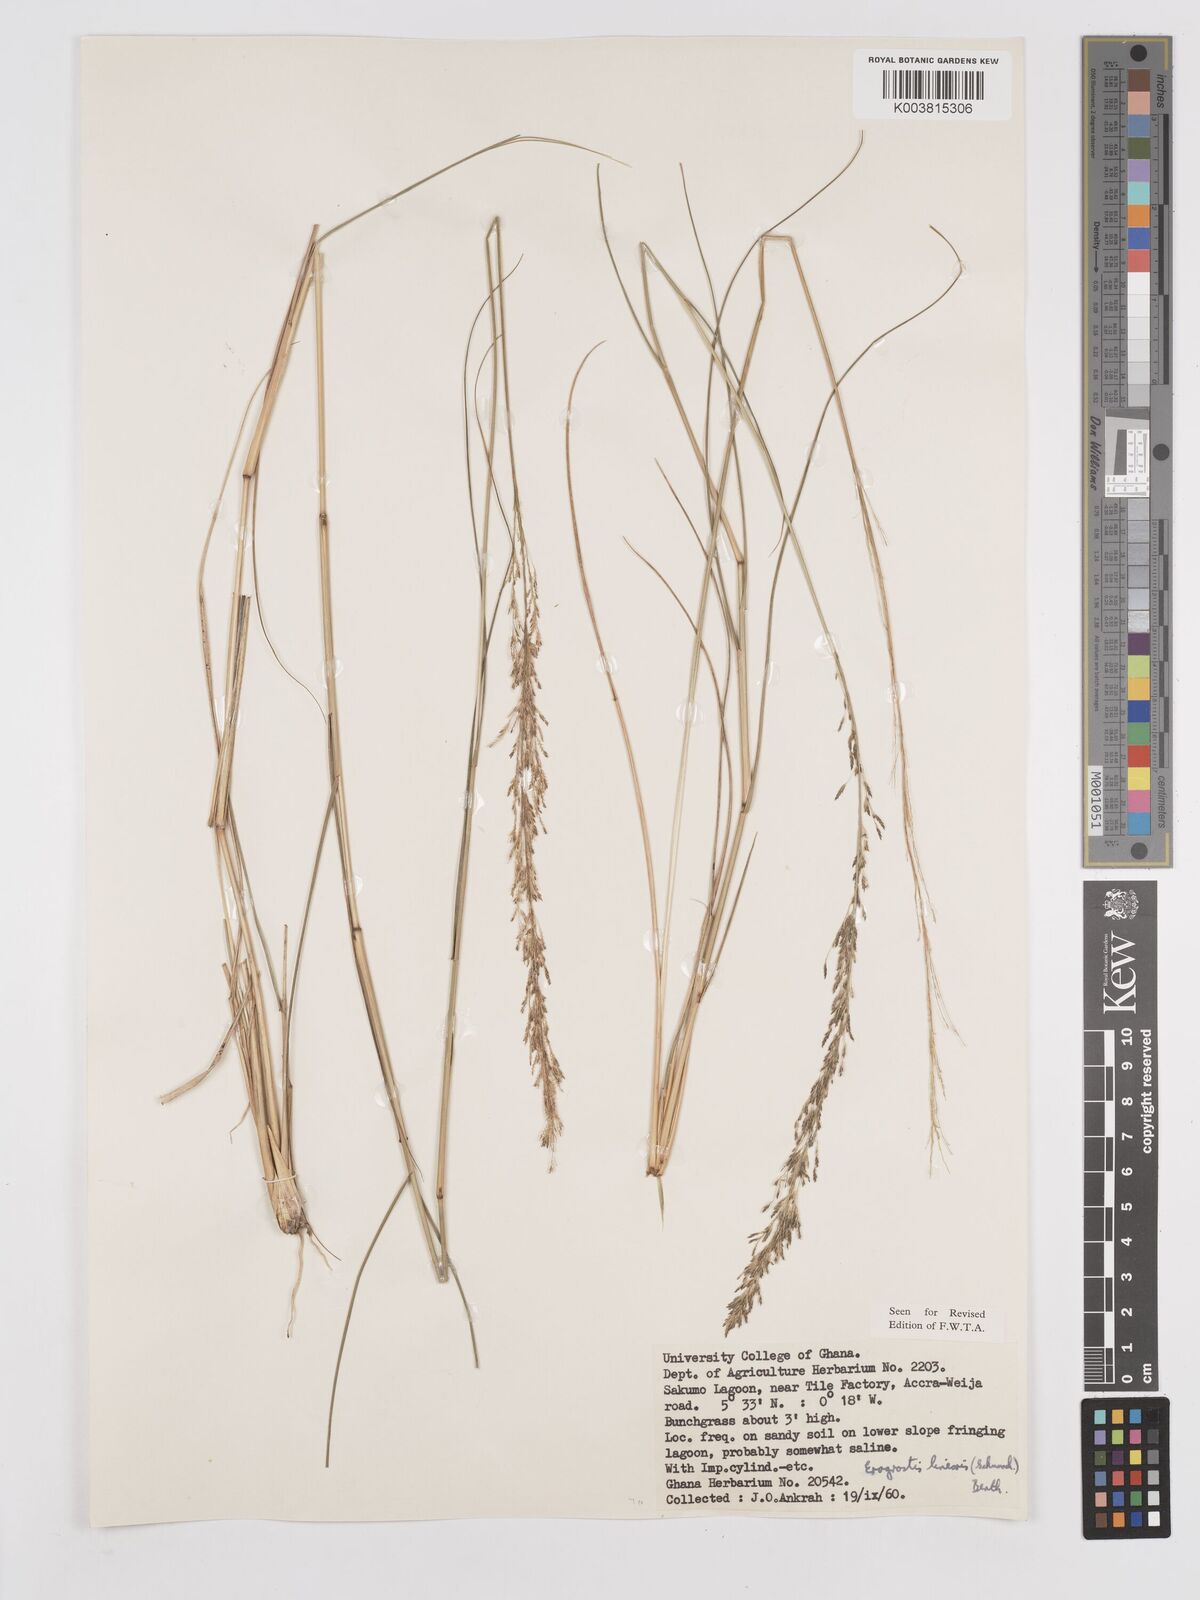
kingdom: Plantae
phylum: Tracheophyta
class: Liliopsida
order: Poales
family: Poaceae
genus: Eragrostis
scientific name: Eragrostis prolifera
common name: Dominican lovegrass
